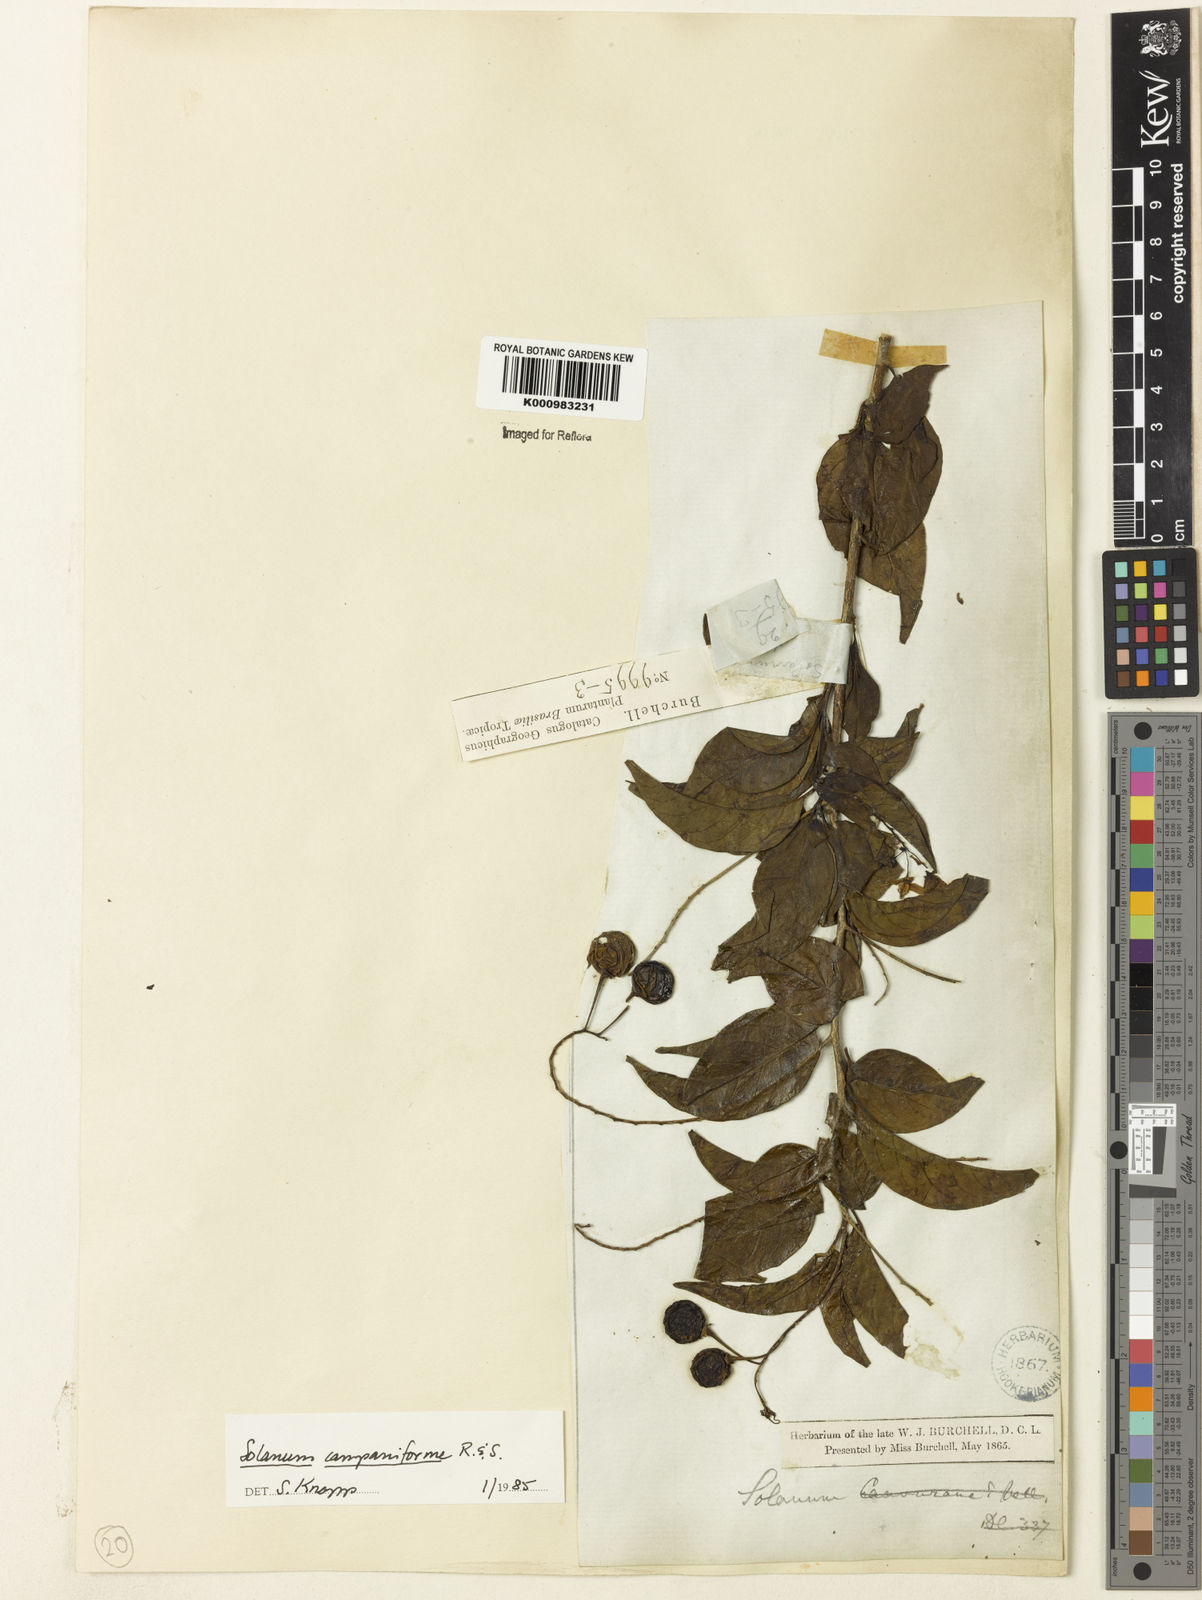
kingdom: Plantae
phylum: Tracheophyta
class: Magnoliopsida
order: Solanales
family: Solanaceae
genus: Solanum
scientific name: Solanum campaniforme
